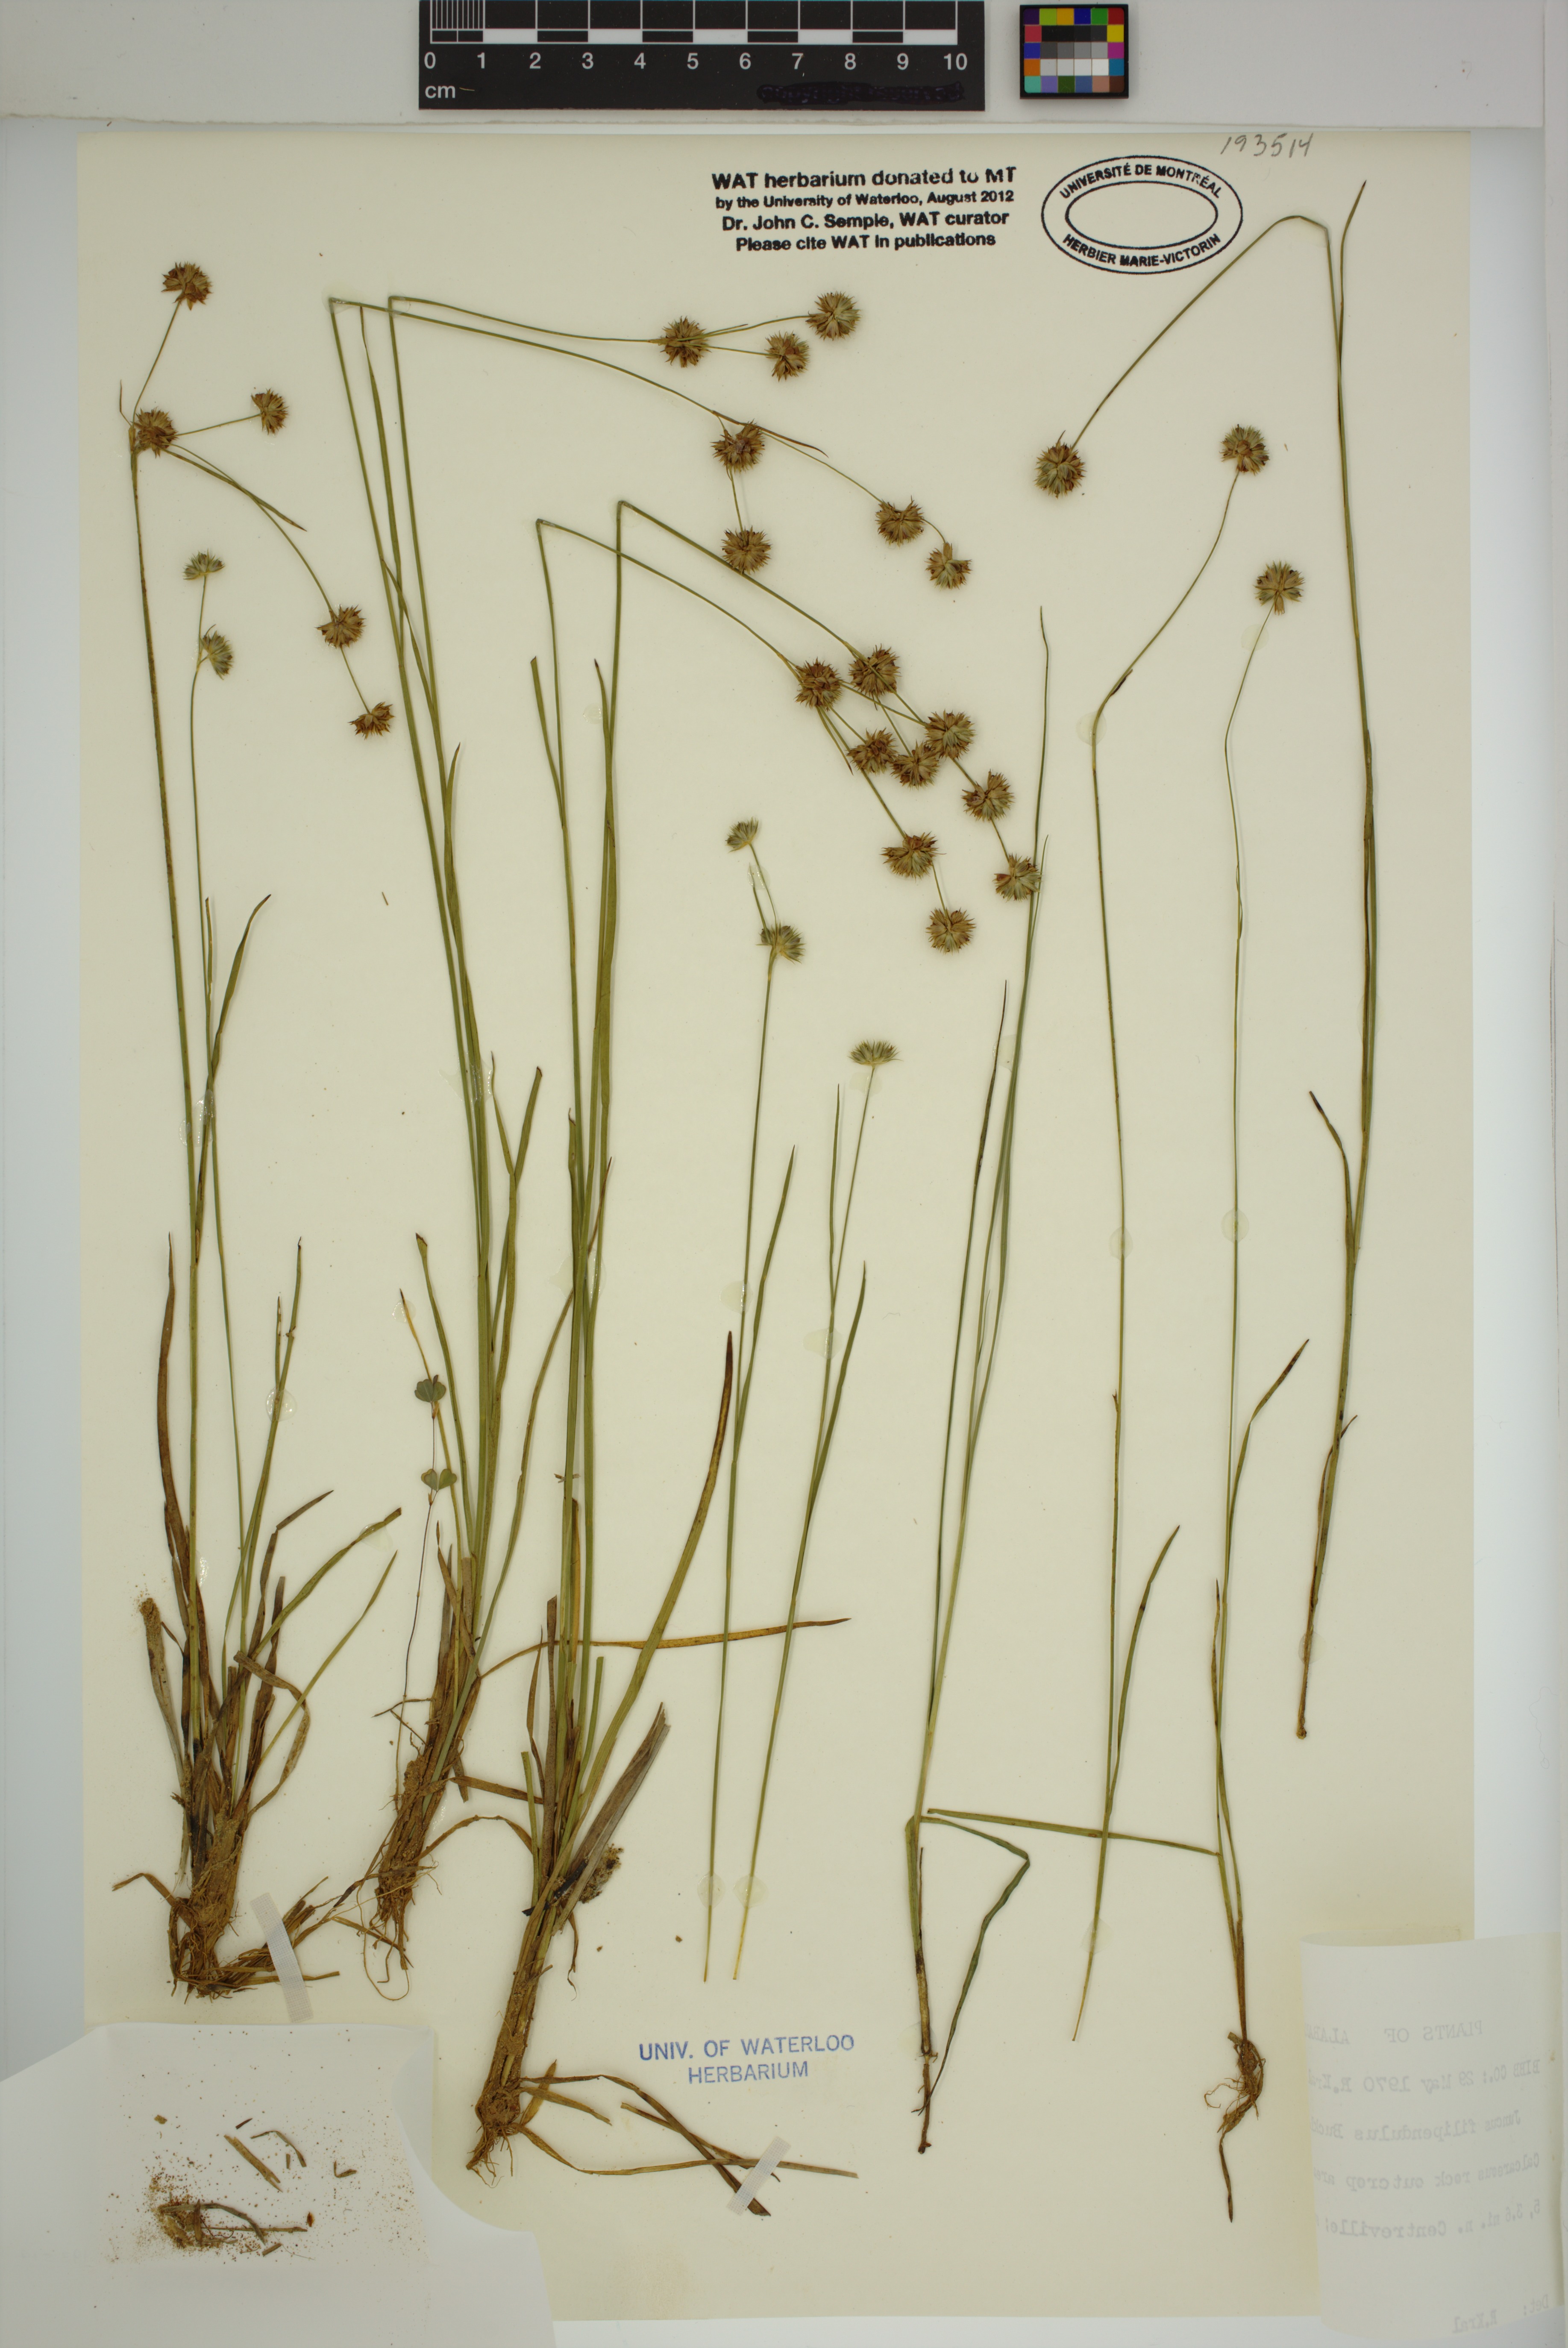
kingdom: Plantae
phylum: Tracheophyta
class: Liliopsida
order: Poales
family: Juncaceae
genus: Juncus
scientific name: Juncus filipendulus
